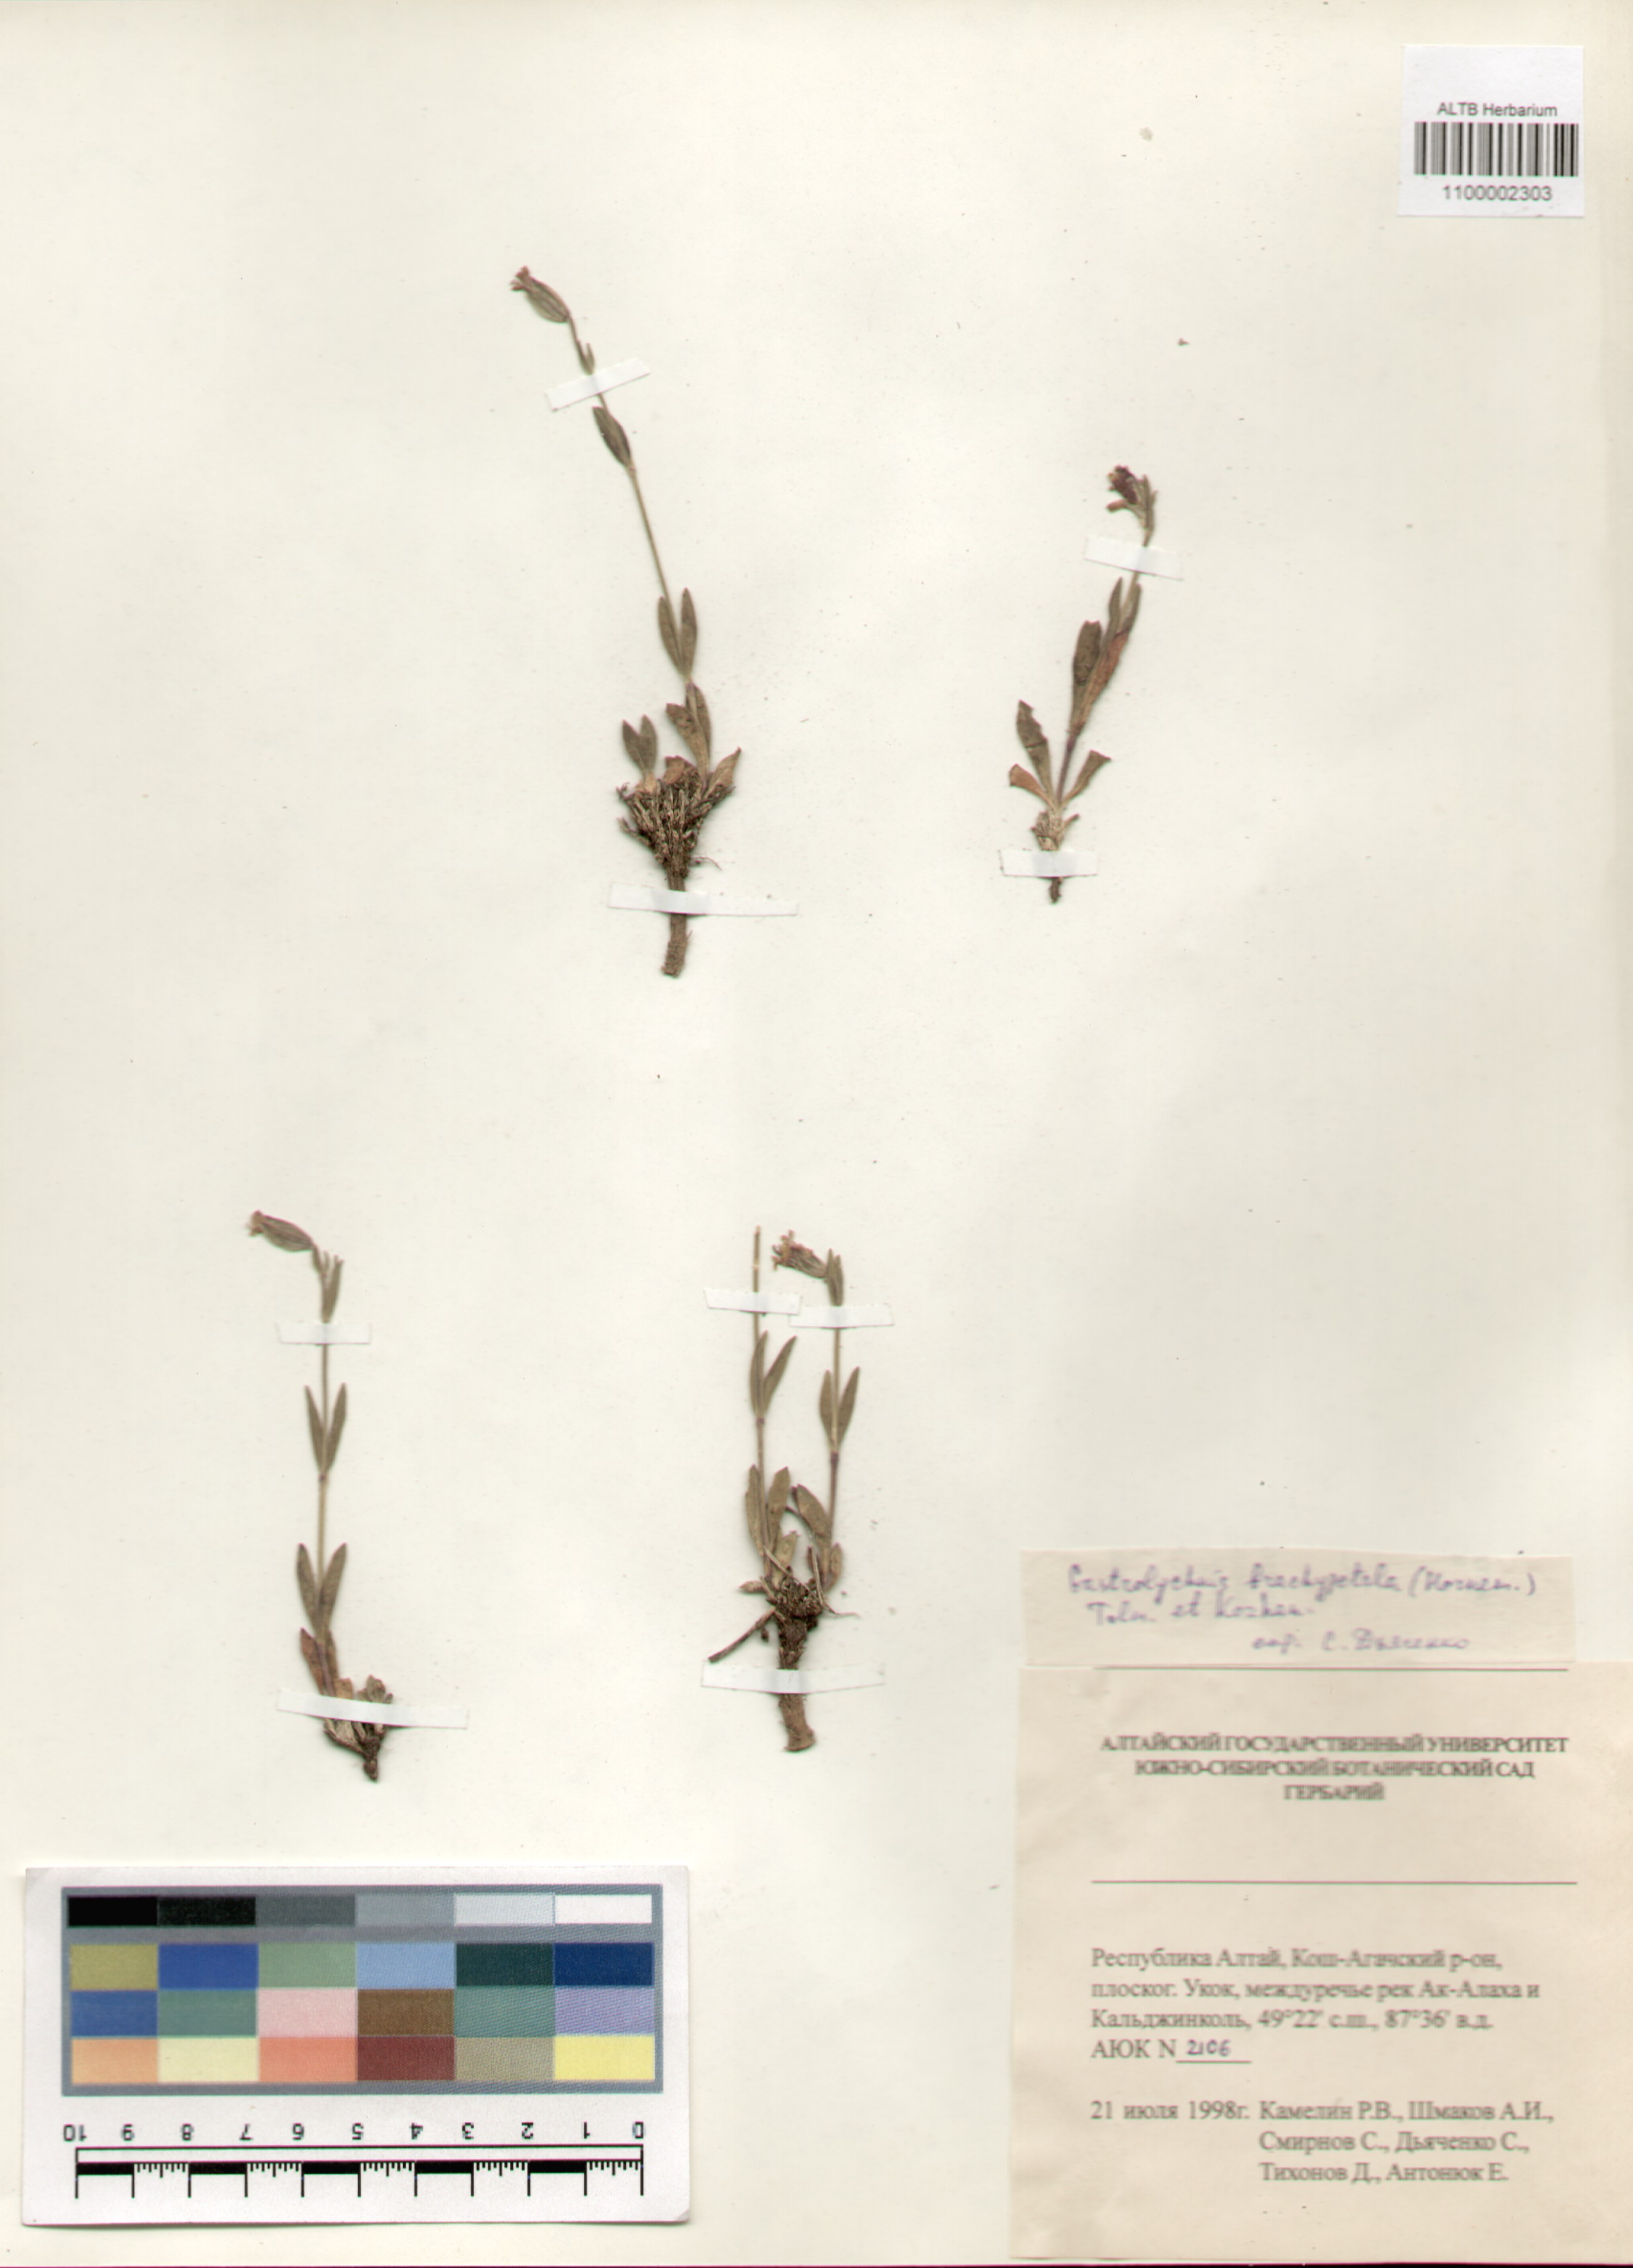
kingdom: Plantae
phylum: Tracheophyta
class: Magnoliopsida
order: Caryophyllales
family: Caryophyllaceae
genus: Silene
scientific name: Silene songarica
